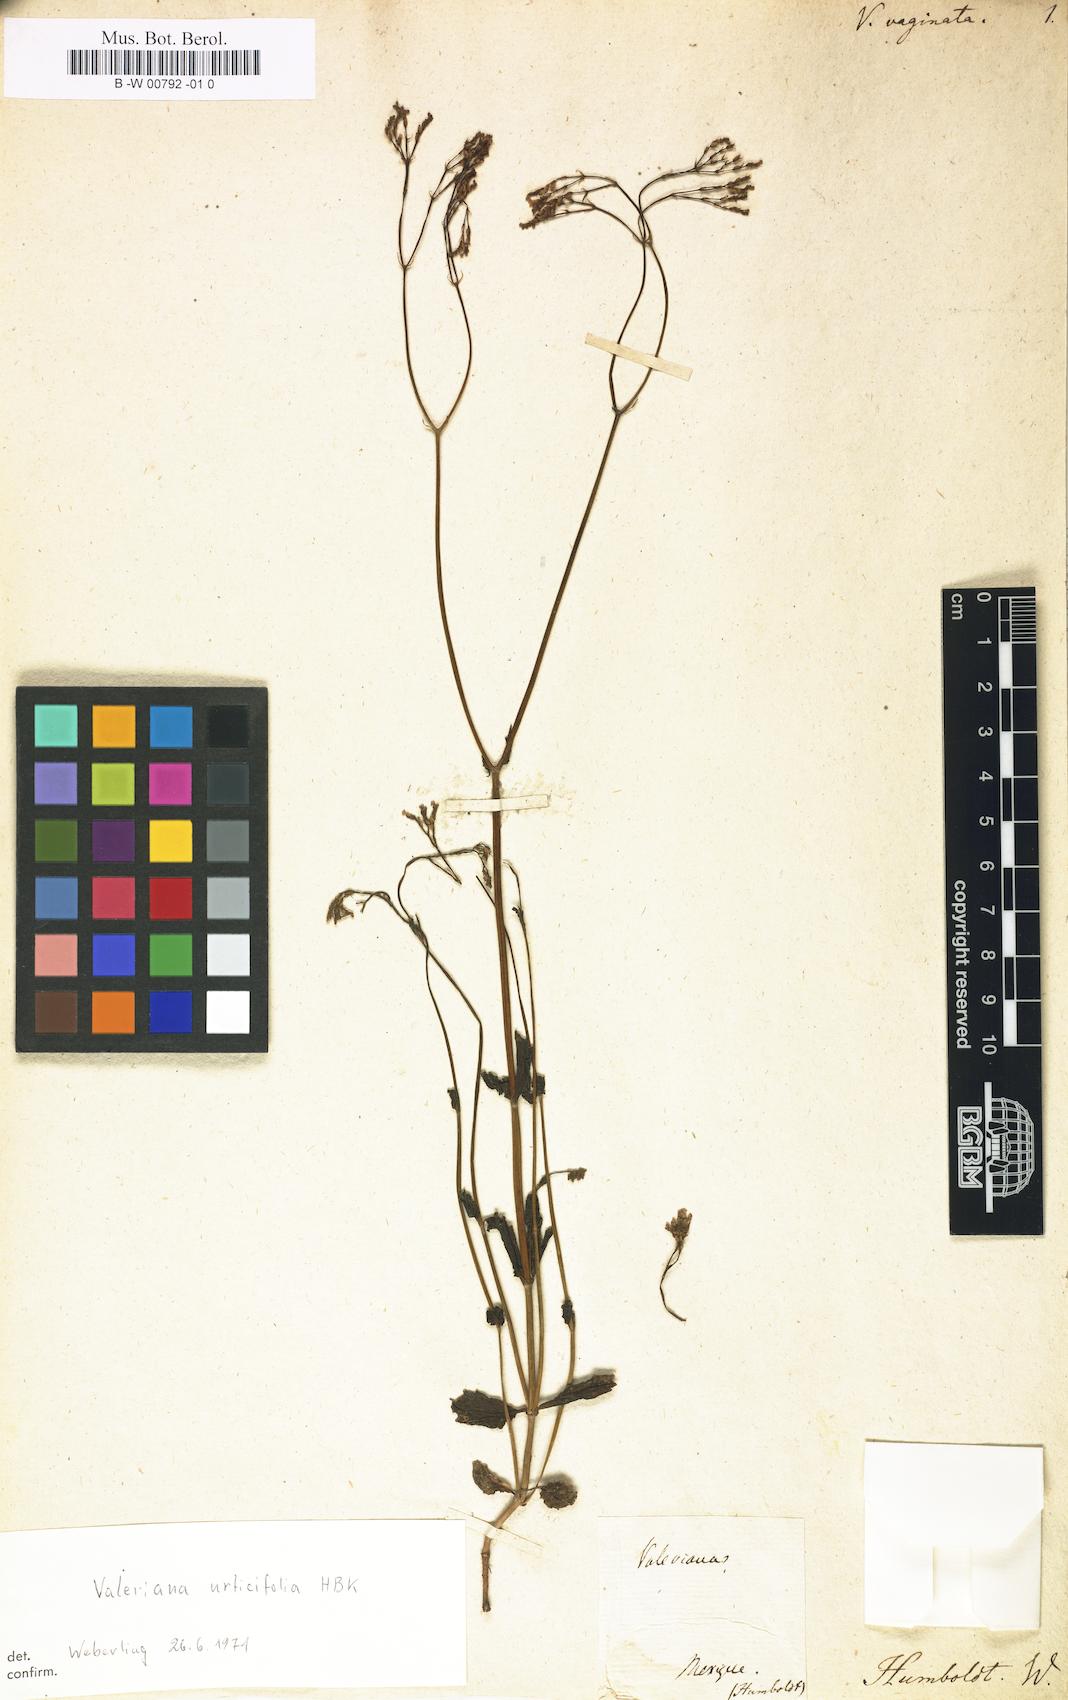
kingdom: Plantae
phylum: Tracheophyta
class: Magnoliopsida
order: Dipsacales
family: Caprifoliaceae
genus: Valeriana
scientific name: Valeriana vaginata
